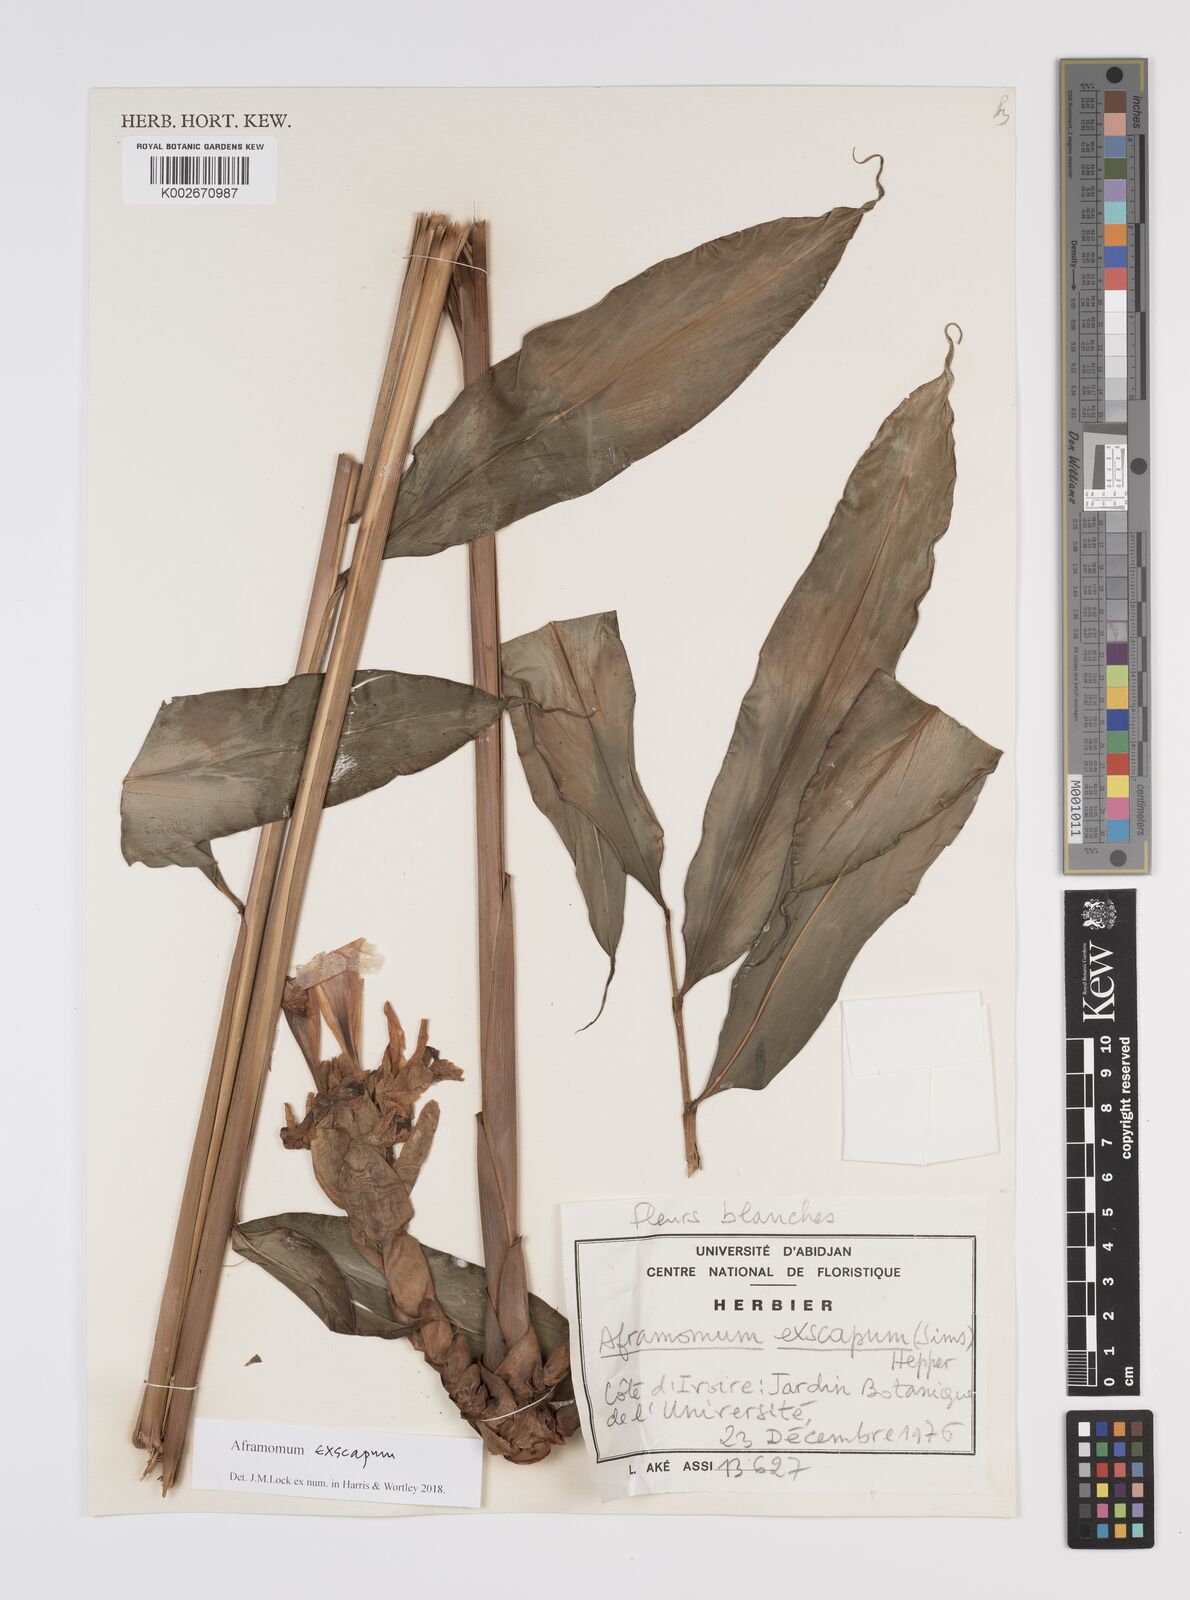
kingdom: Plantae
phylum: Tracheophyta
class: Liliopsida
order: Zingiberales
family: Zingiberaceae
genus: Aframomum
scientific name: Aframomum exscapum
